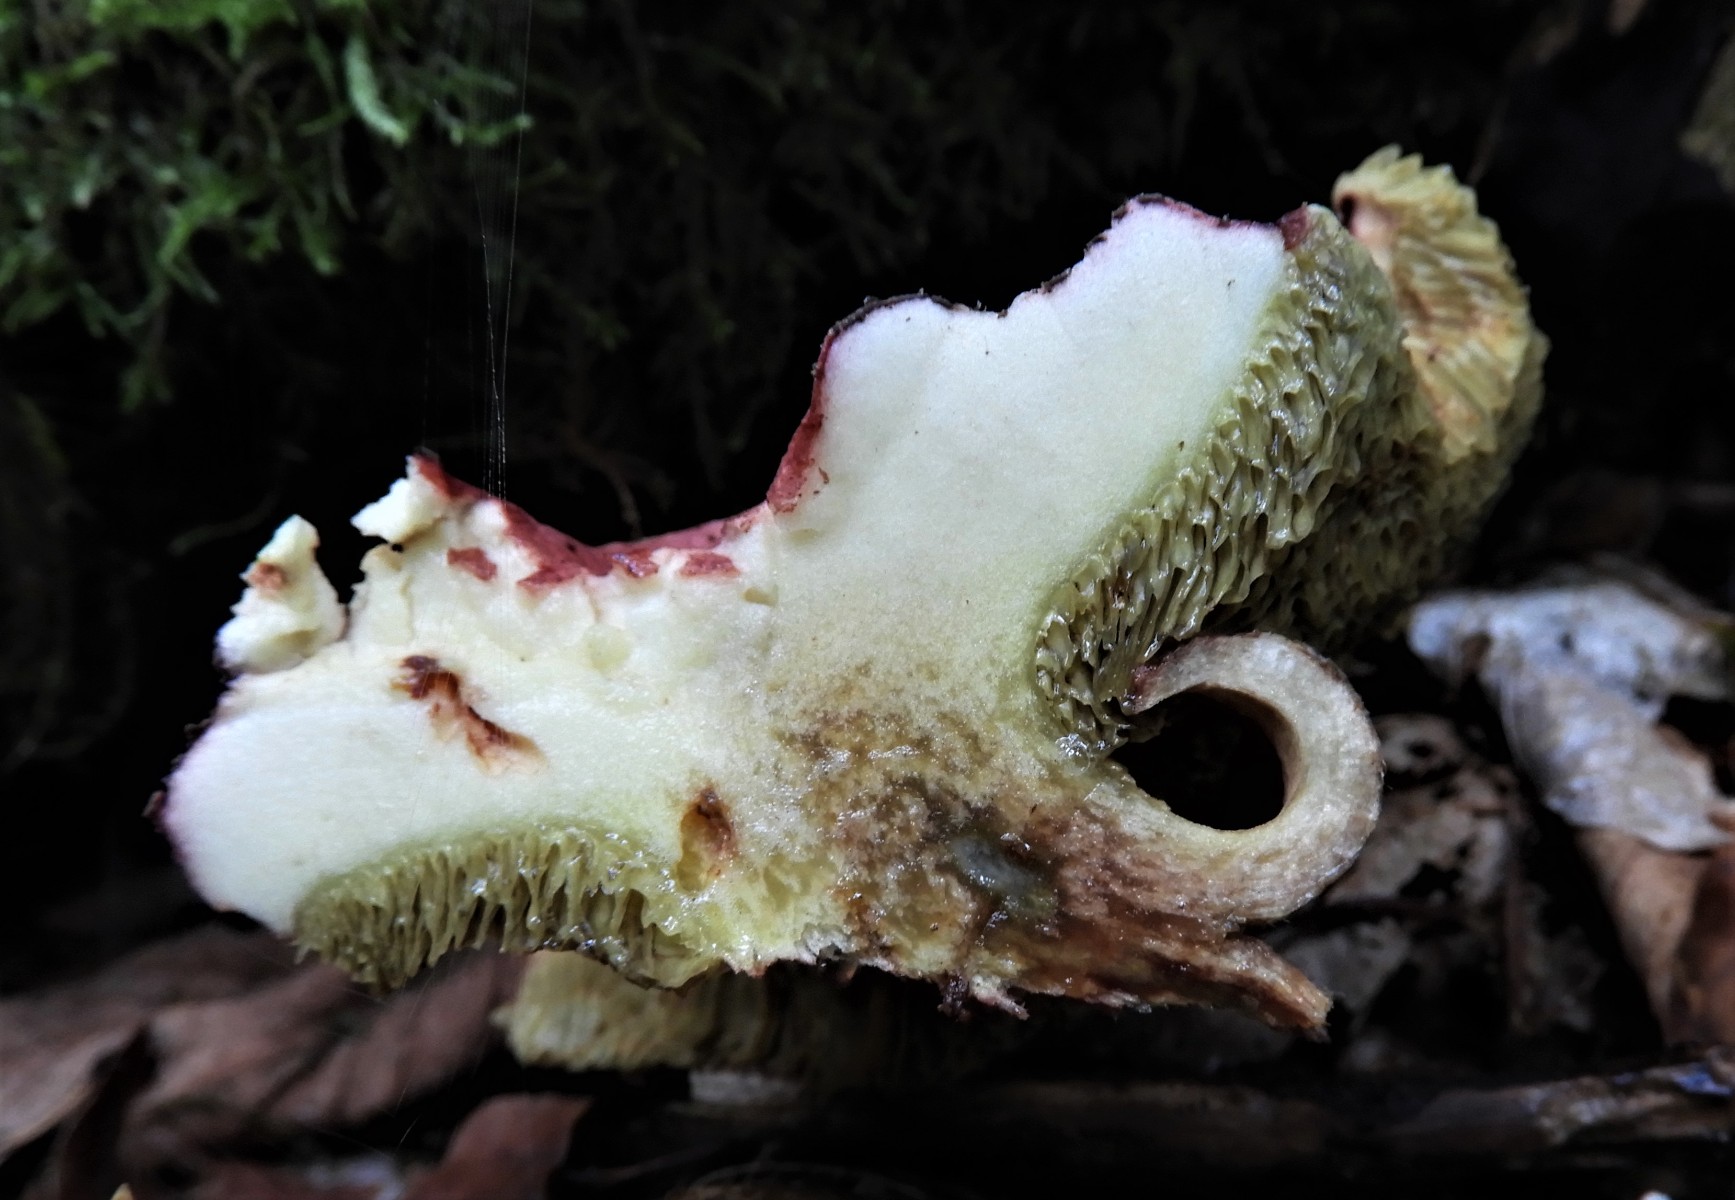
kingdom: Fungi
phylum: Basidiomycota
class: Agaricomycetes
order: Boletales
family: Boletaceae
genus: Xerocomellus
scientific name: Xerocomellus chrysenteron
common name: rødsprukken rørhat
